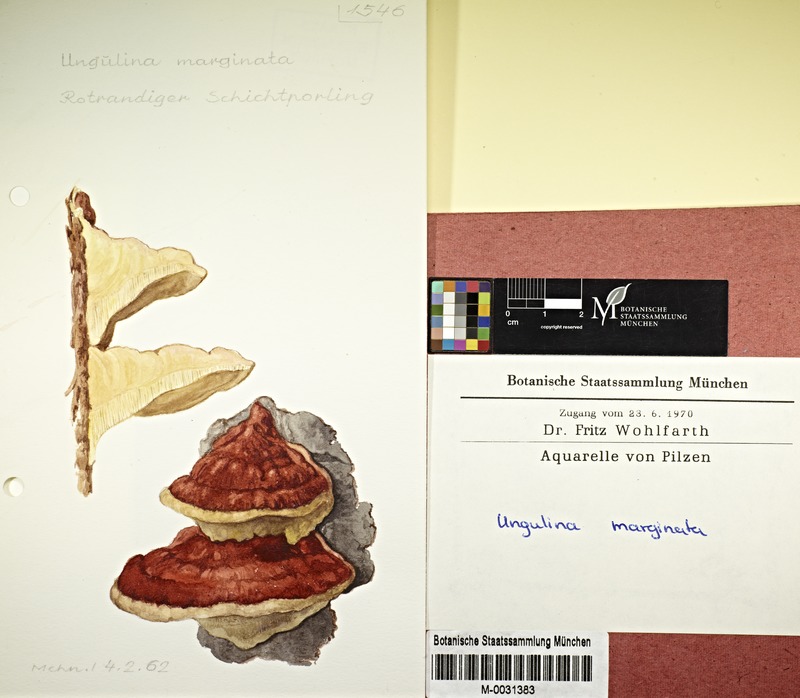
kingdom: Fungi
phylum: Basidiomycota
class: Agaricomycetes
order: Polyporales
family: Fomitopsidaceae
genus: Fomitopsis
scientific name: Fomitopsis pinicola
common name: Red-belted bracket
